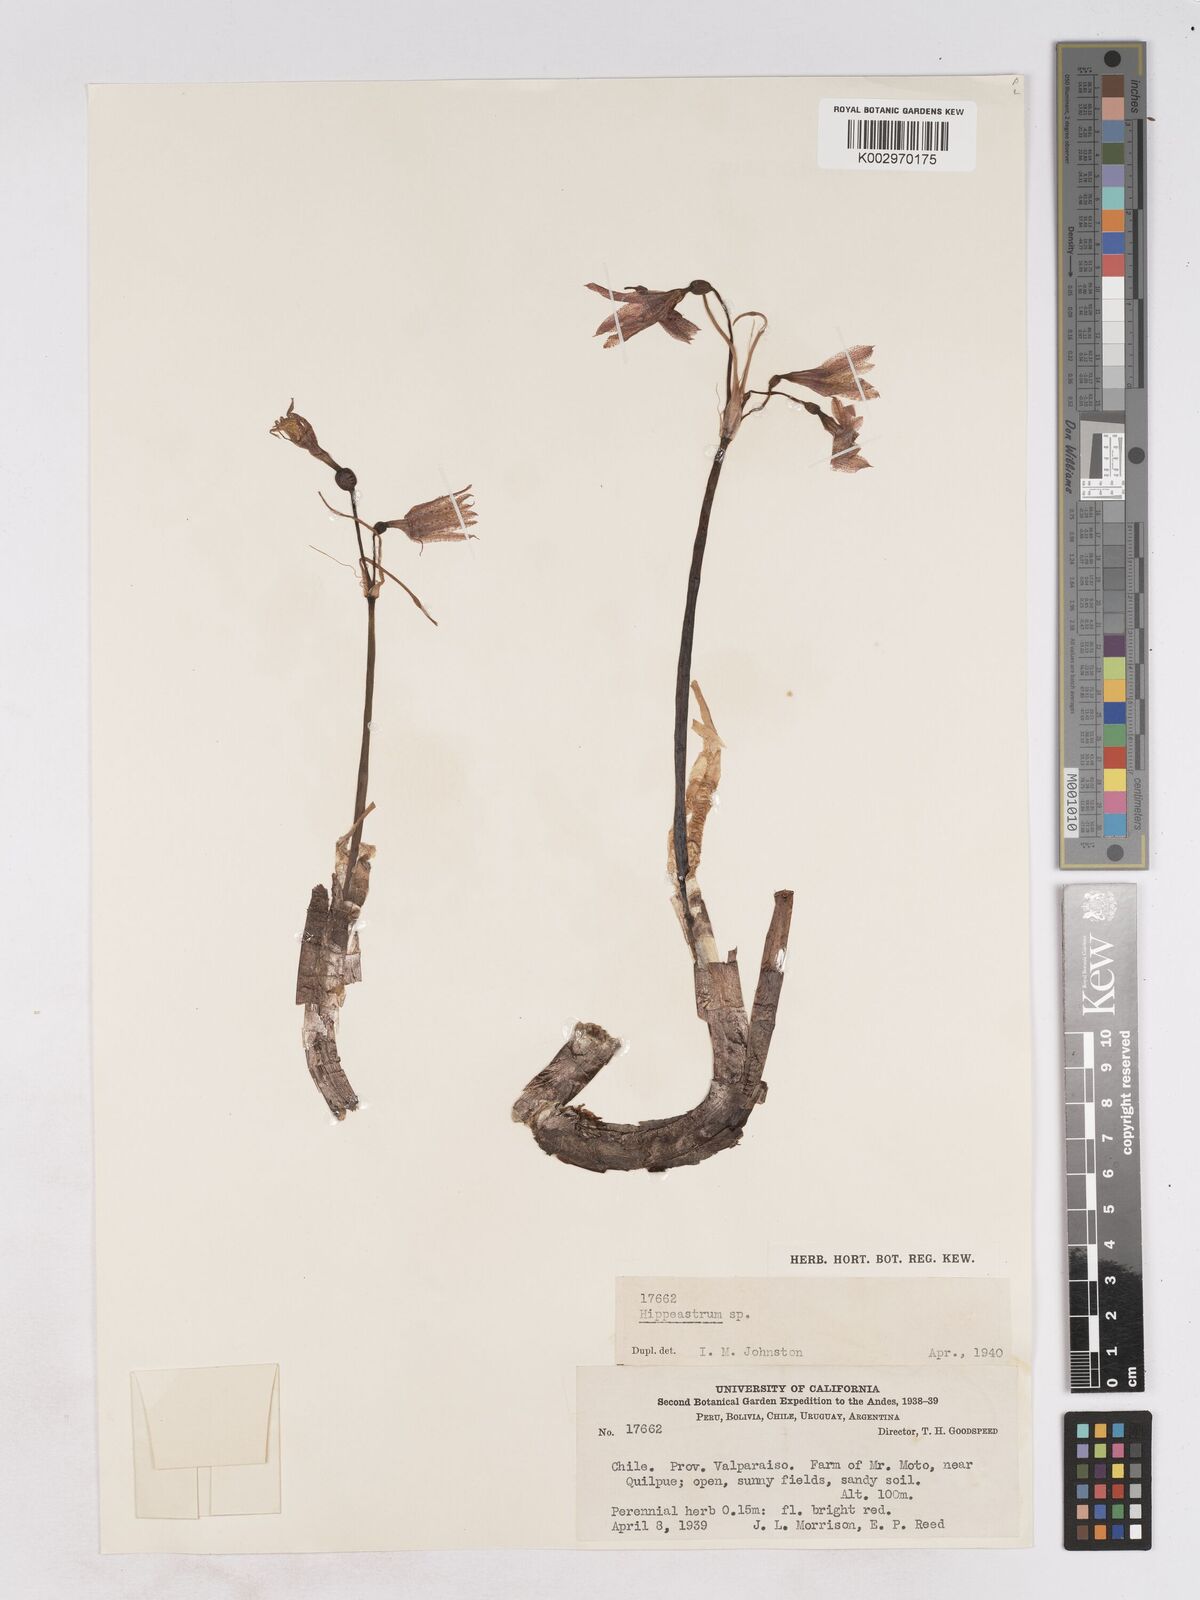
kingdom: Plantae
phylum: Tracheophyta
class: Liliopsida
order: Asparagales
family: Amaryllidaceae
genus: Hippeastrum
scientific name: Hippeastrum
